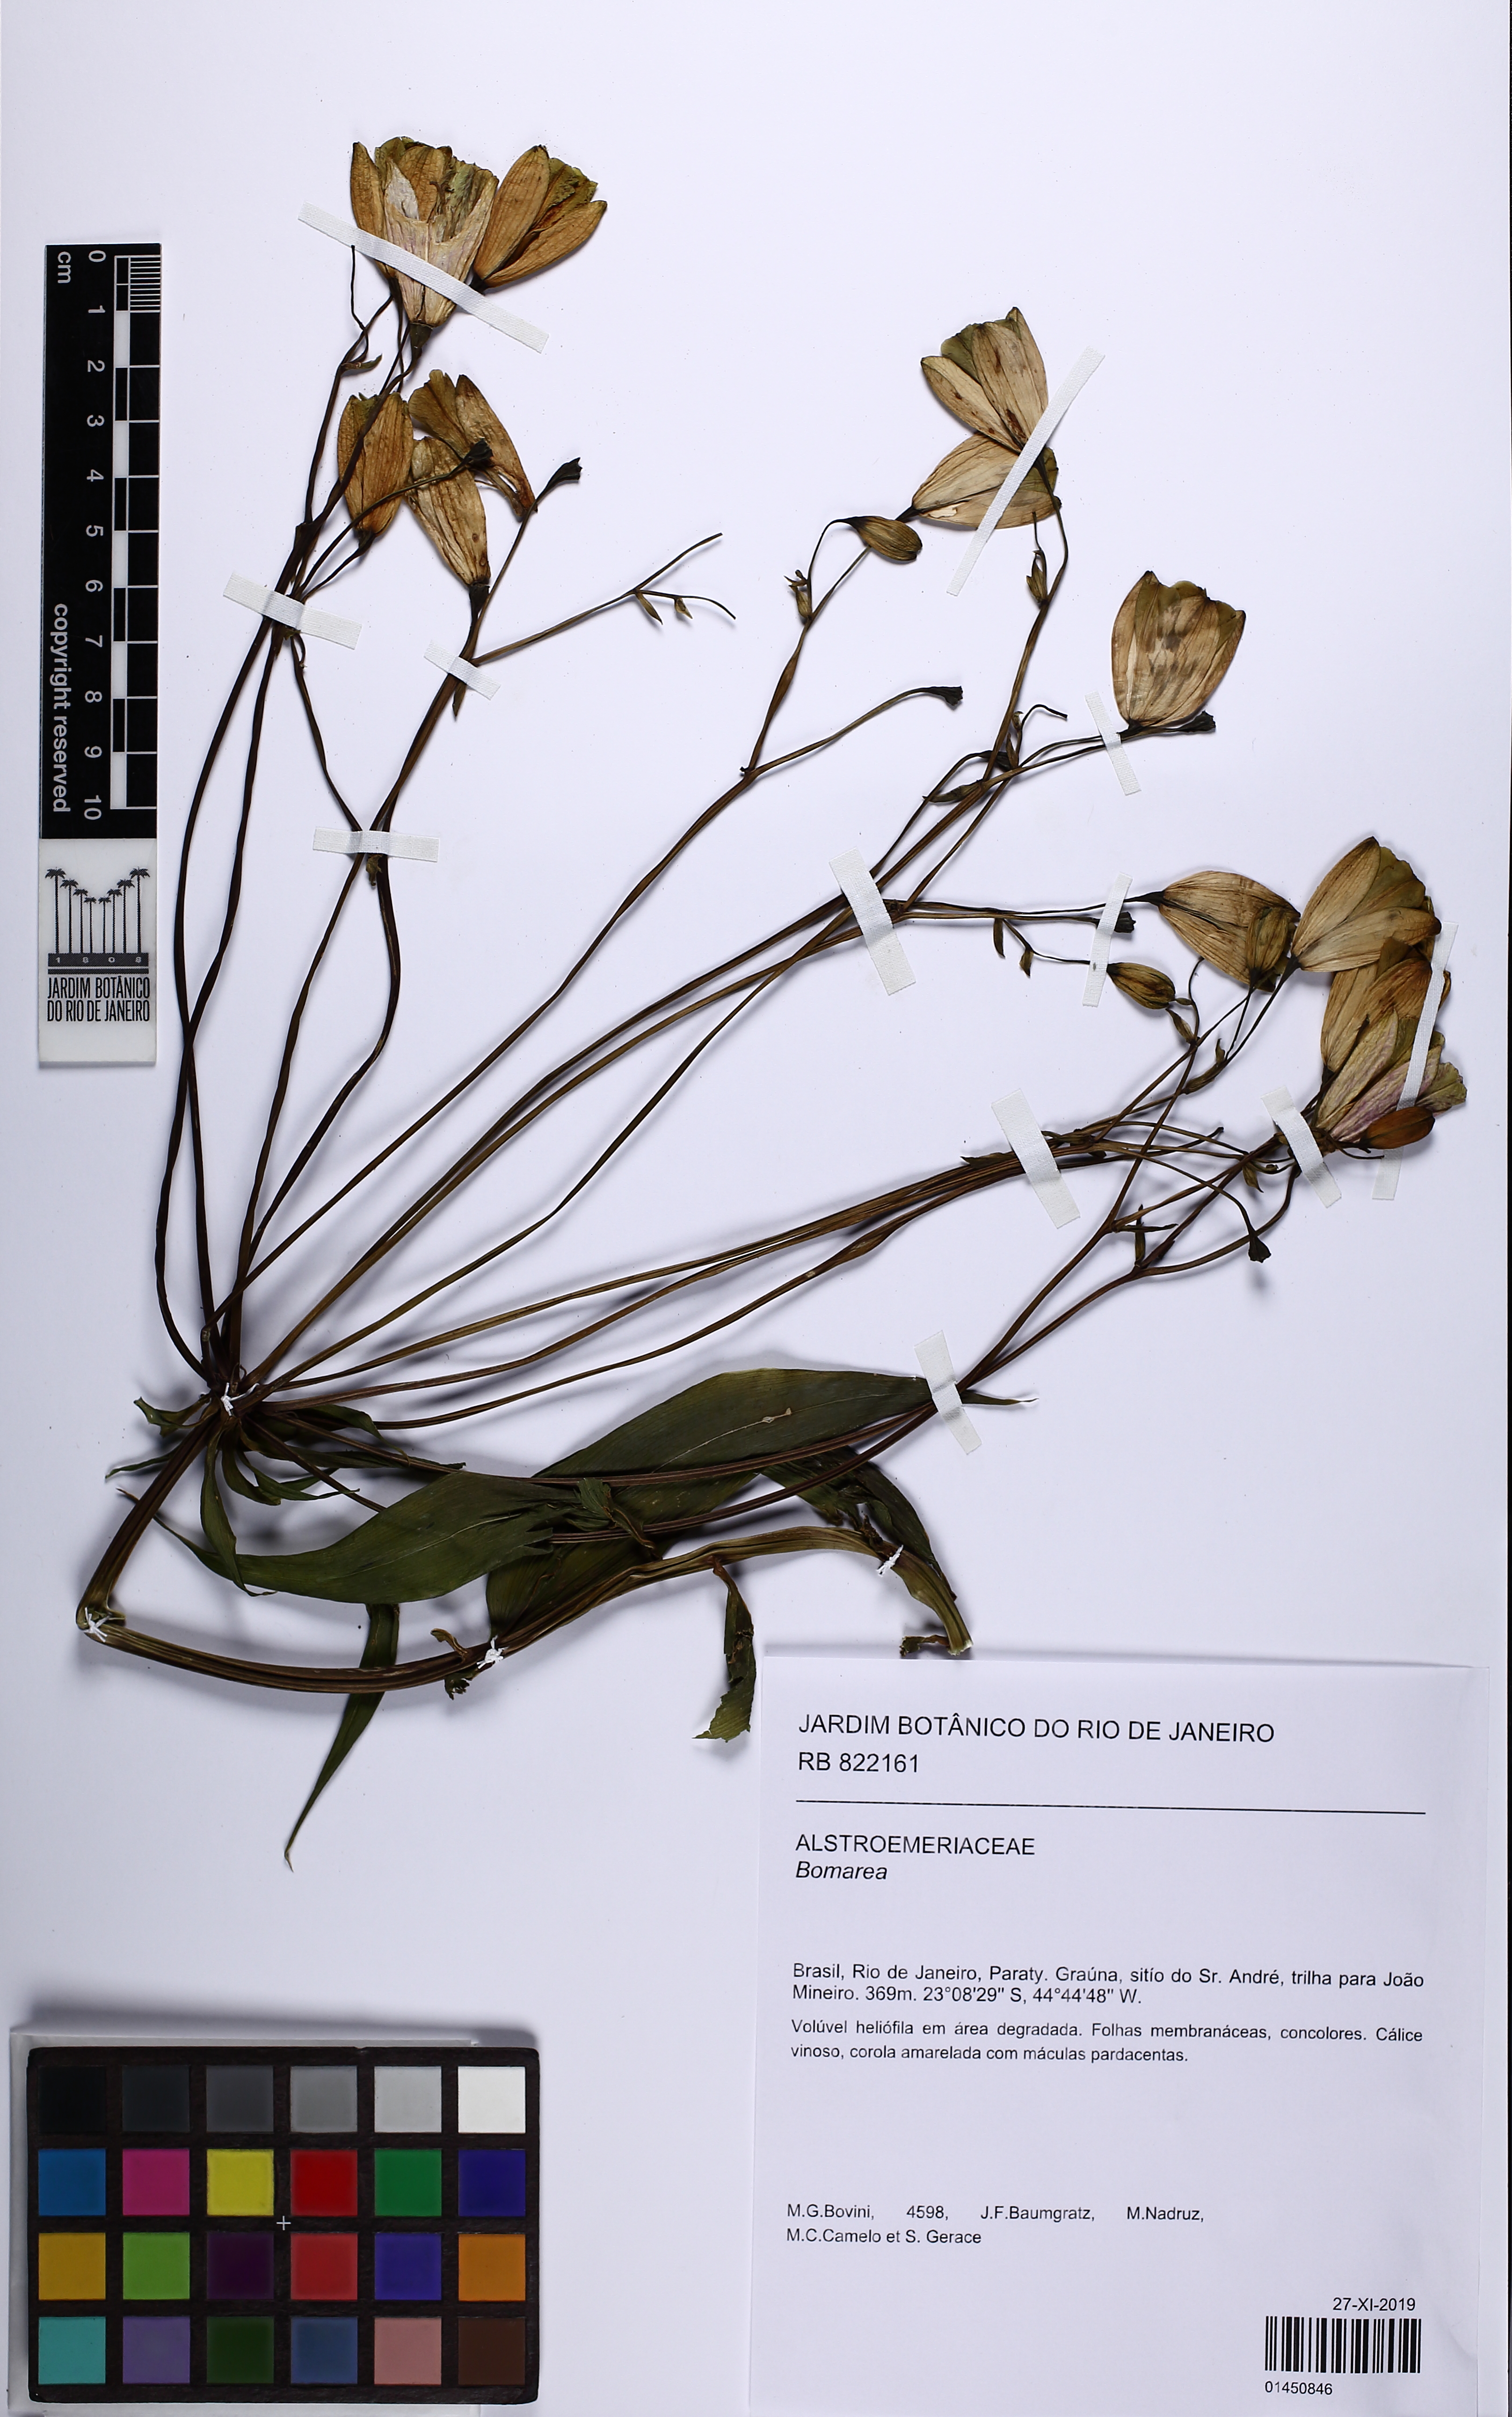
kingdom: Plantae
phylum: Tracheophyta
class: Liliopsida
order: Liliales
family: Alstroemeriaceae
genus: Bomarea
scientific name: Bomarea
